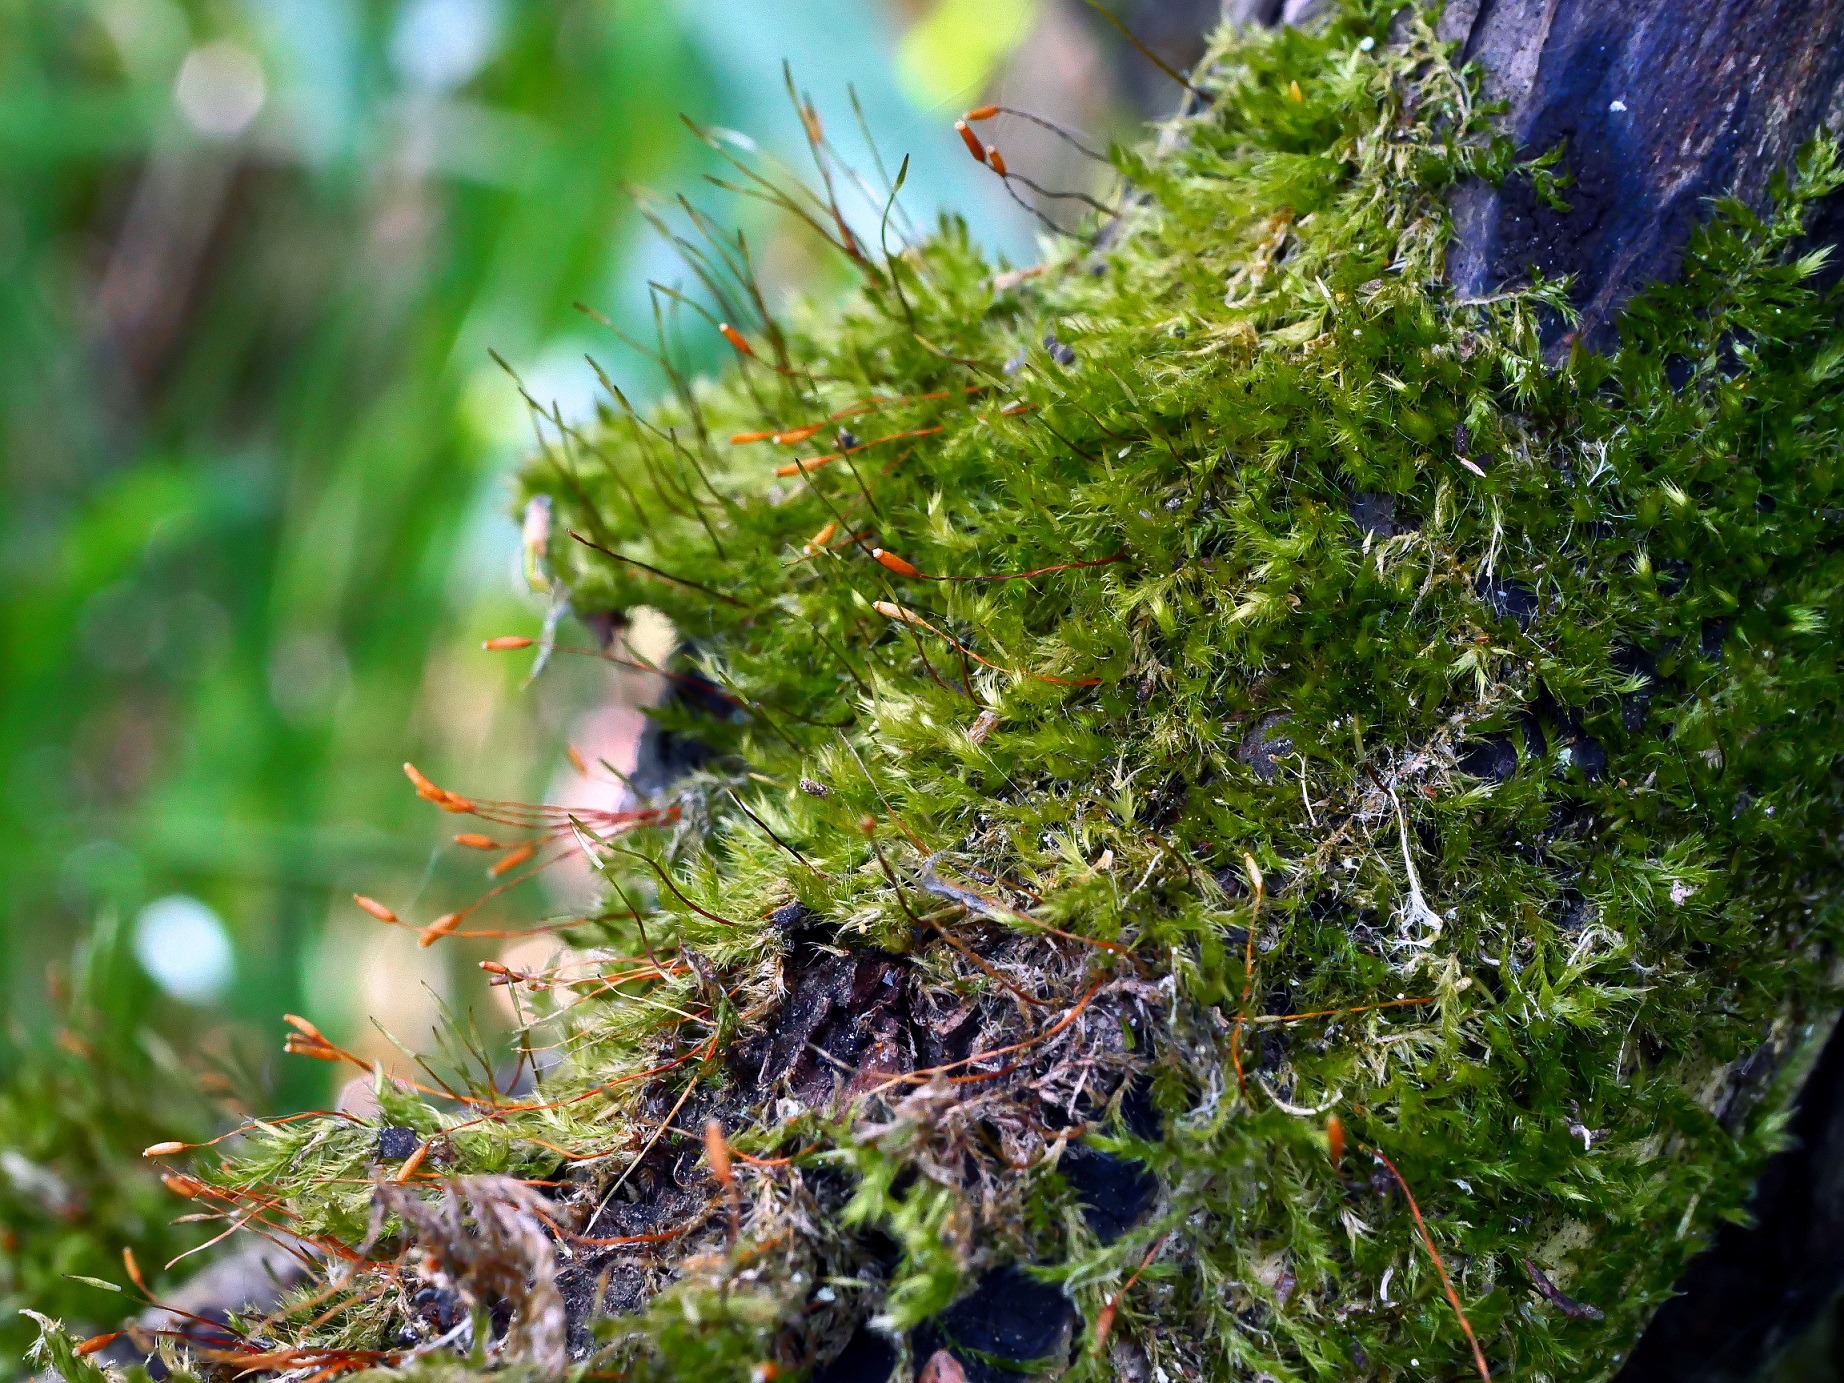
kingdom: Plantae
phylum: Bryophyta
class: Bryopsida
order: Hypnales
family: Pylaisiaceae
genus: Pylaisia
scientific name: Pylaisia polyantha
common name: Mangefrugtet aspemos
